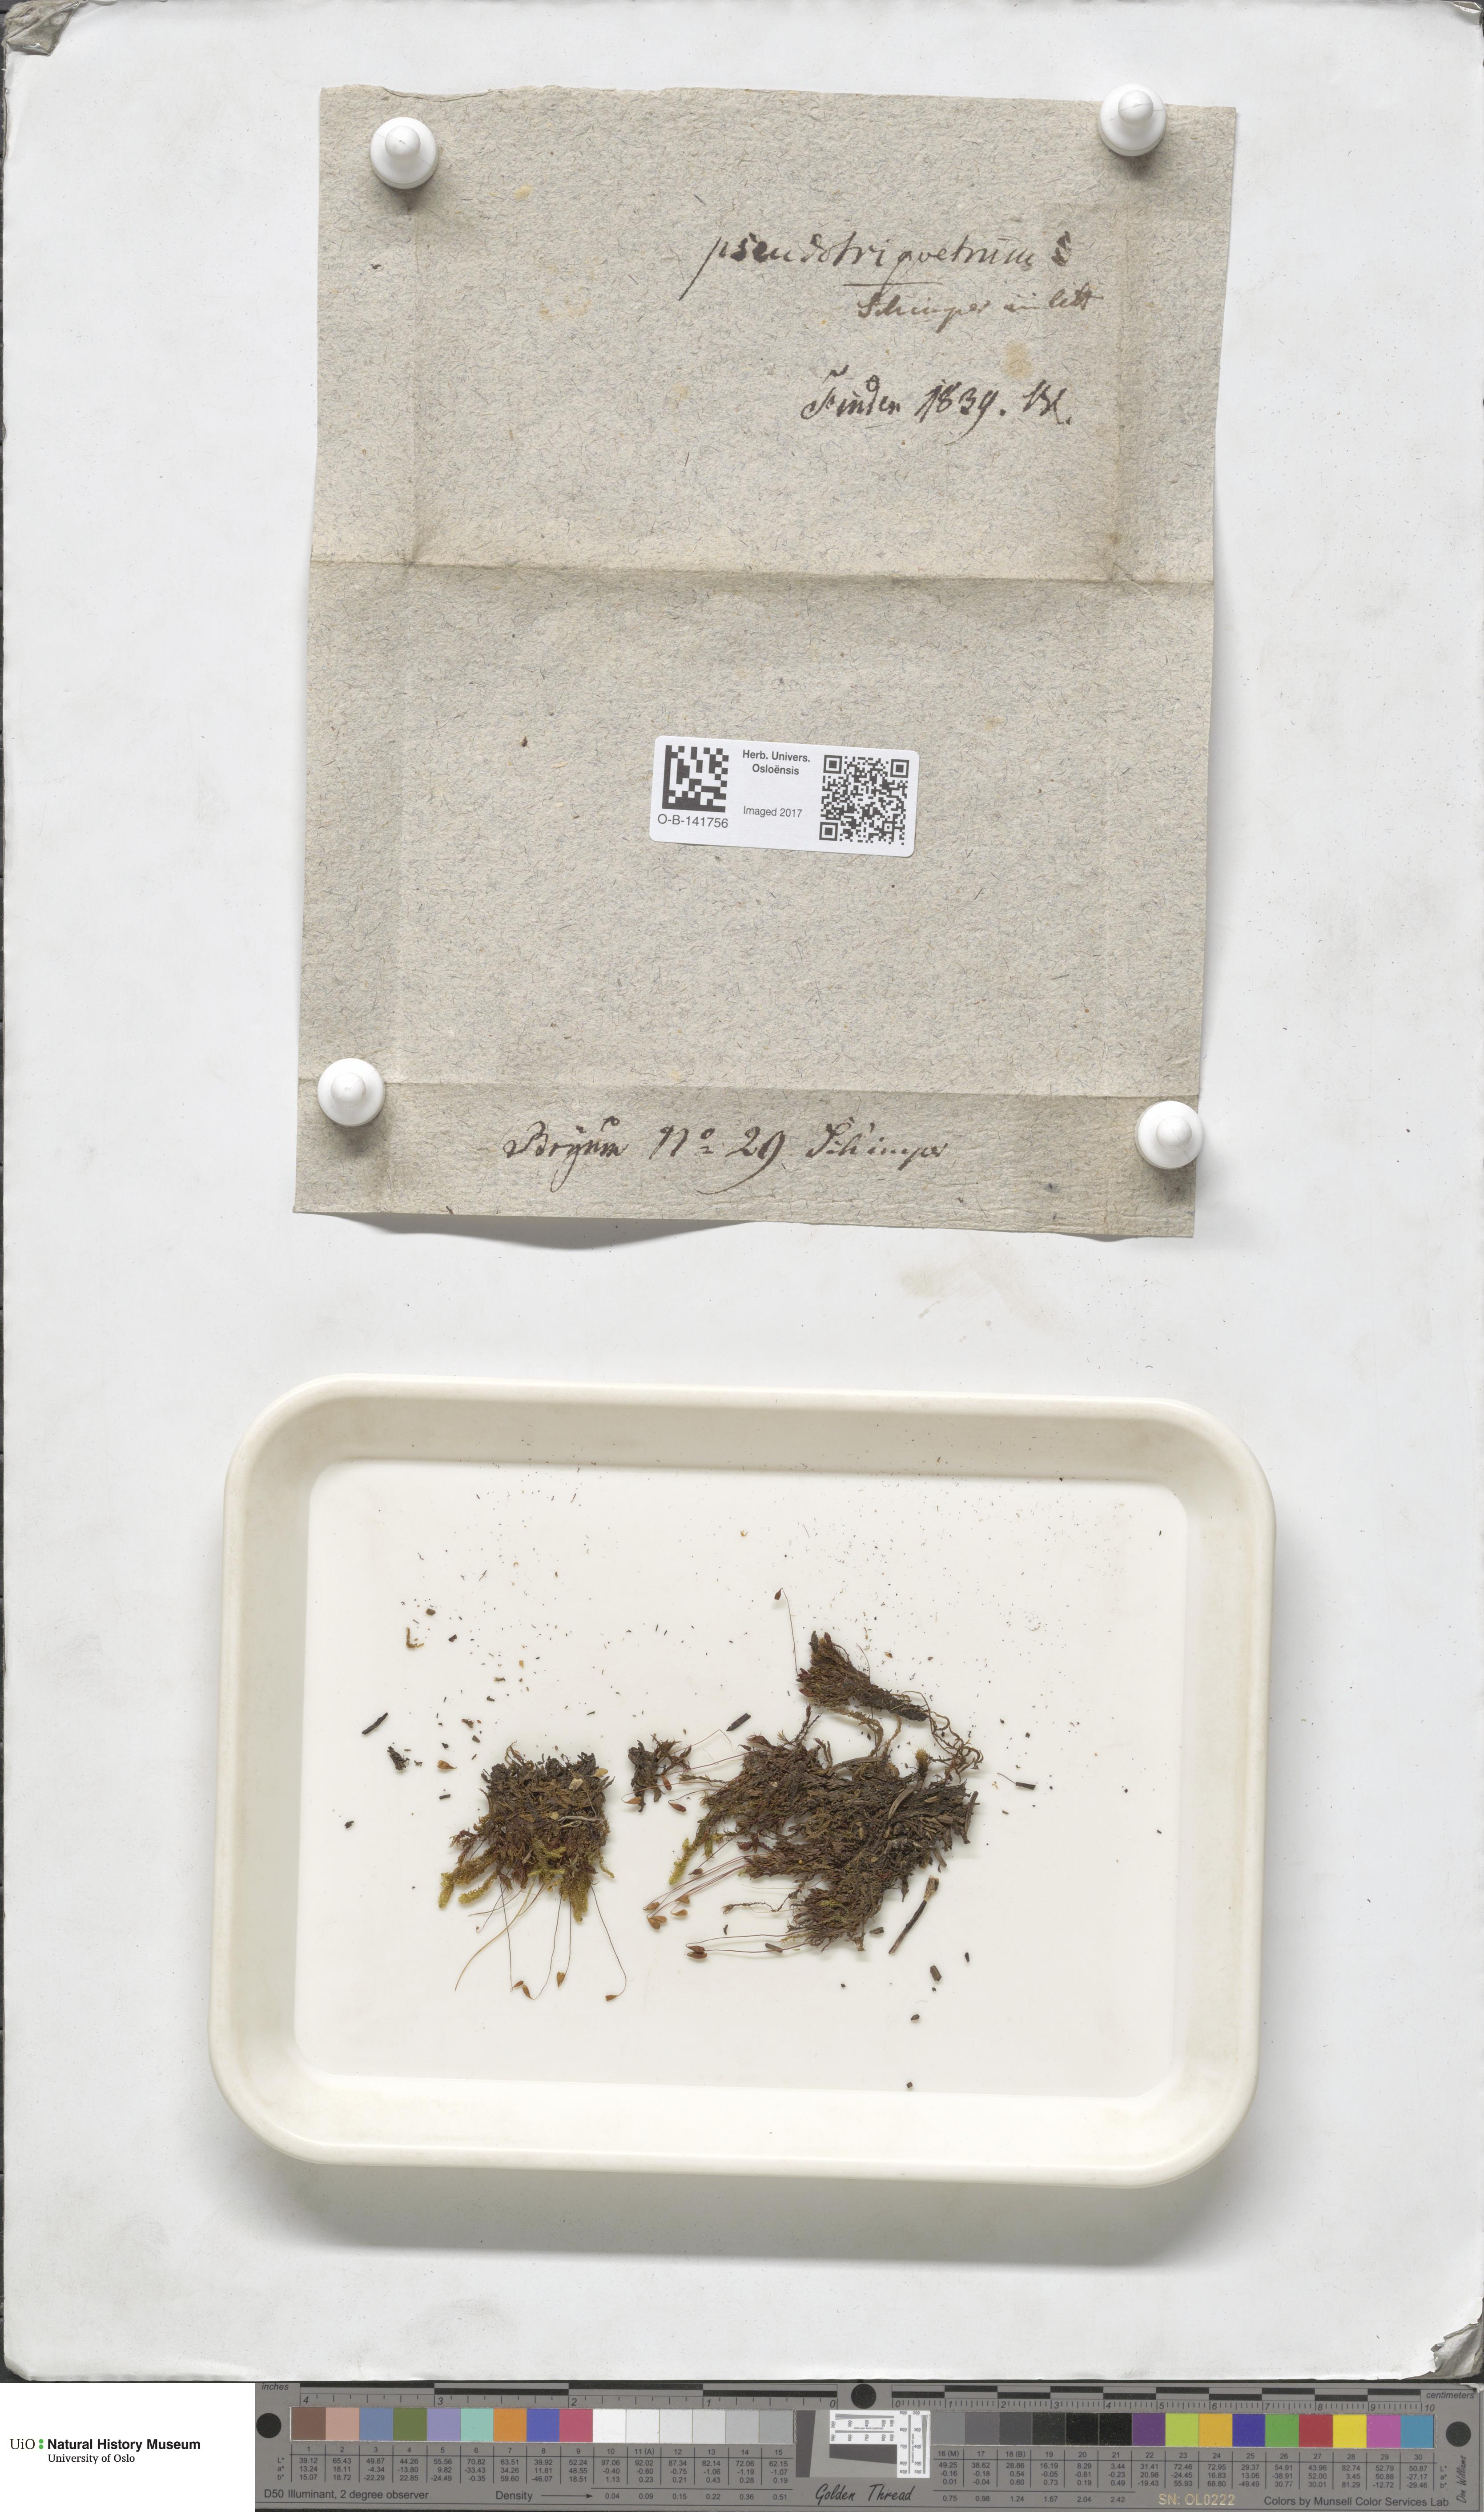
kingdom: Plantae
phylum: Bryophyta
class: Bryopsida
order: Bryales
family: Bryaceae
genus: Ptychostomum
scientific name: Ptychostomum pseudotriquetrum
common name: Long-leaved thread moss
